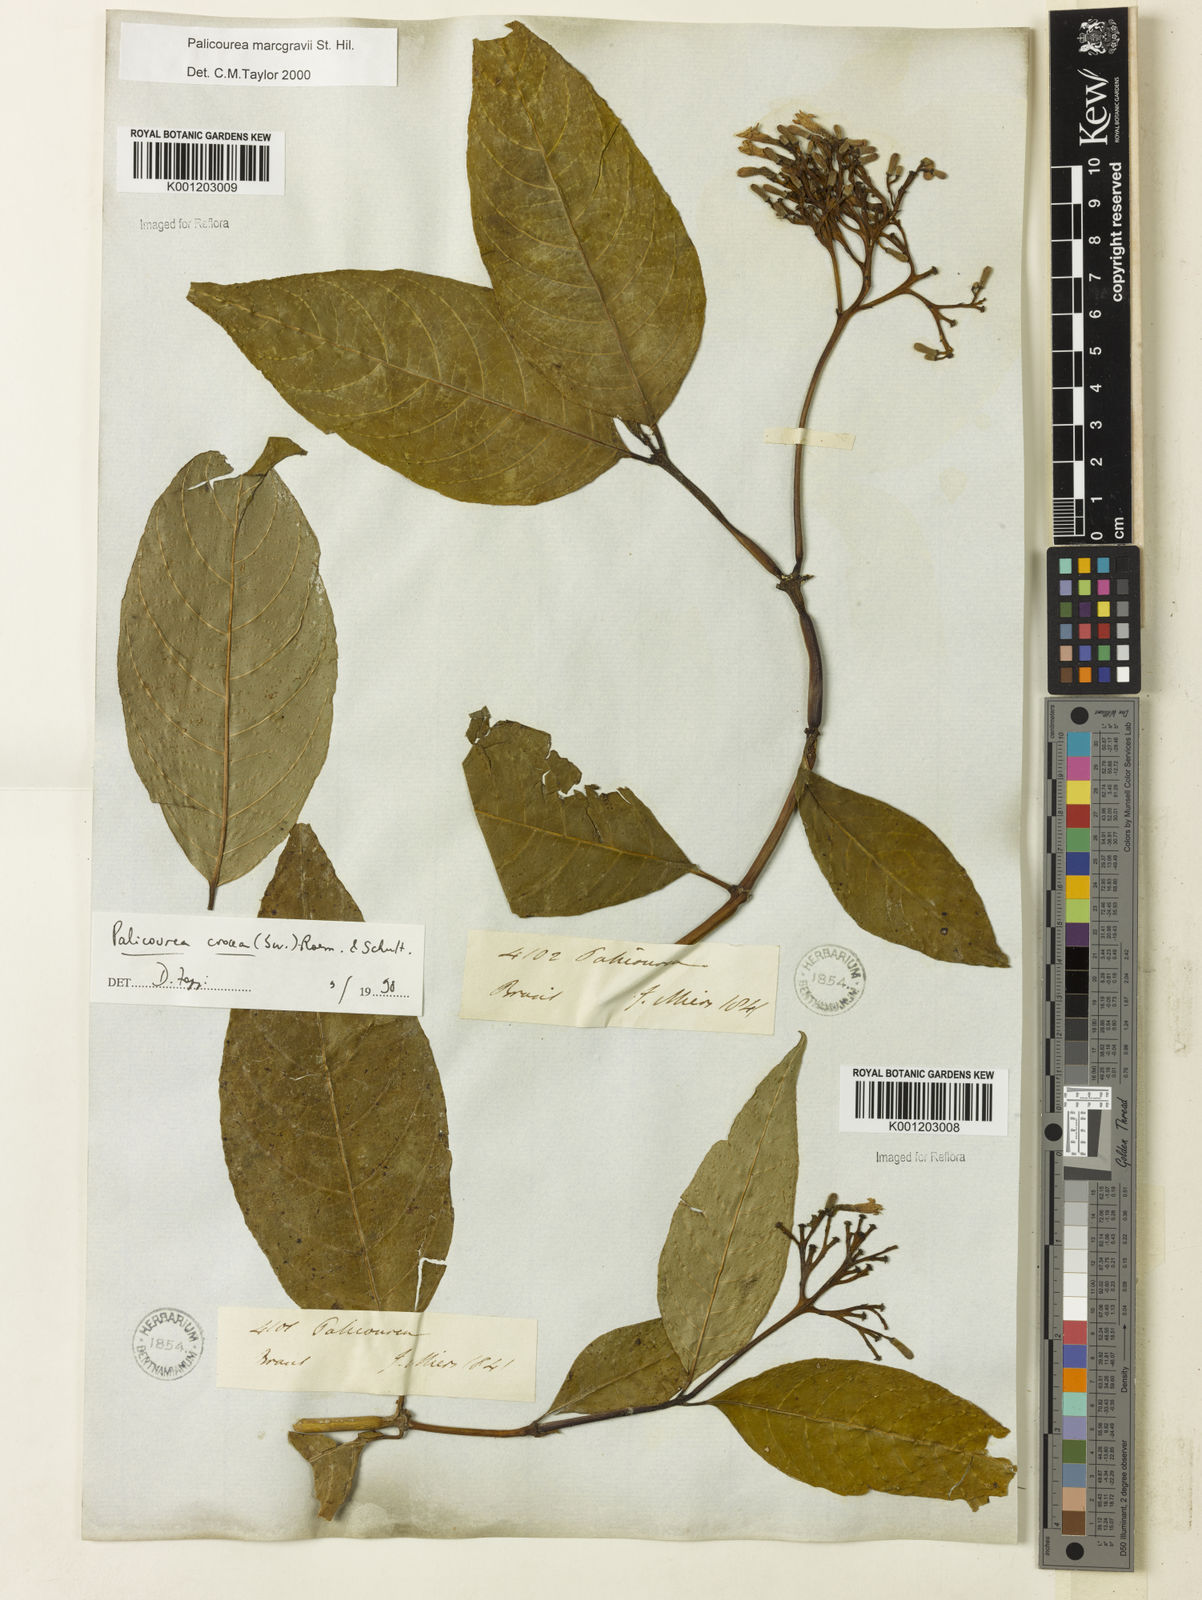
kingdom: Plantae
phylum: Tracheophyta
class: Magnoliopsida
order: Gentianales
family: Rubiaceae
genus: Palicourea
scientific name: Palicourea marcgravii
